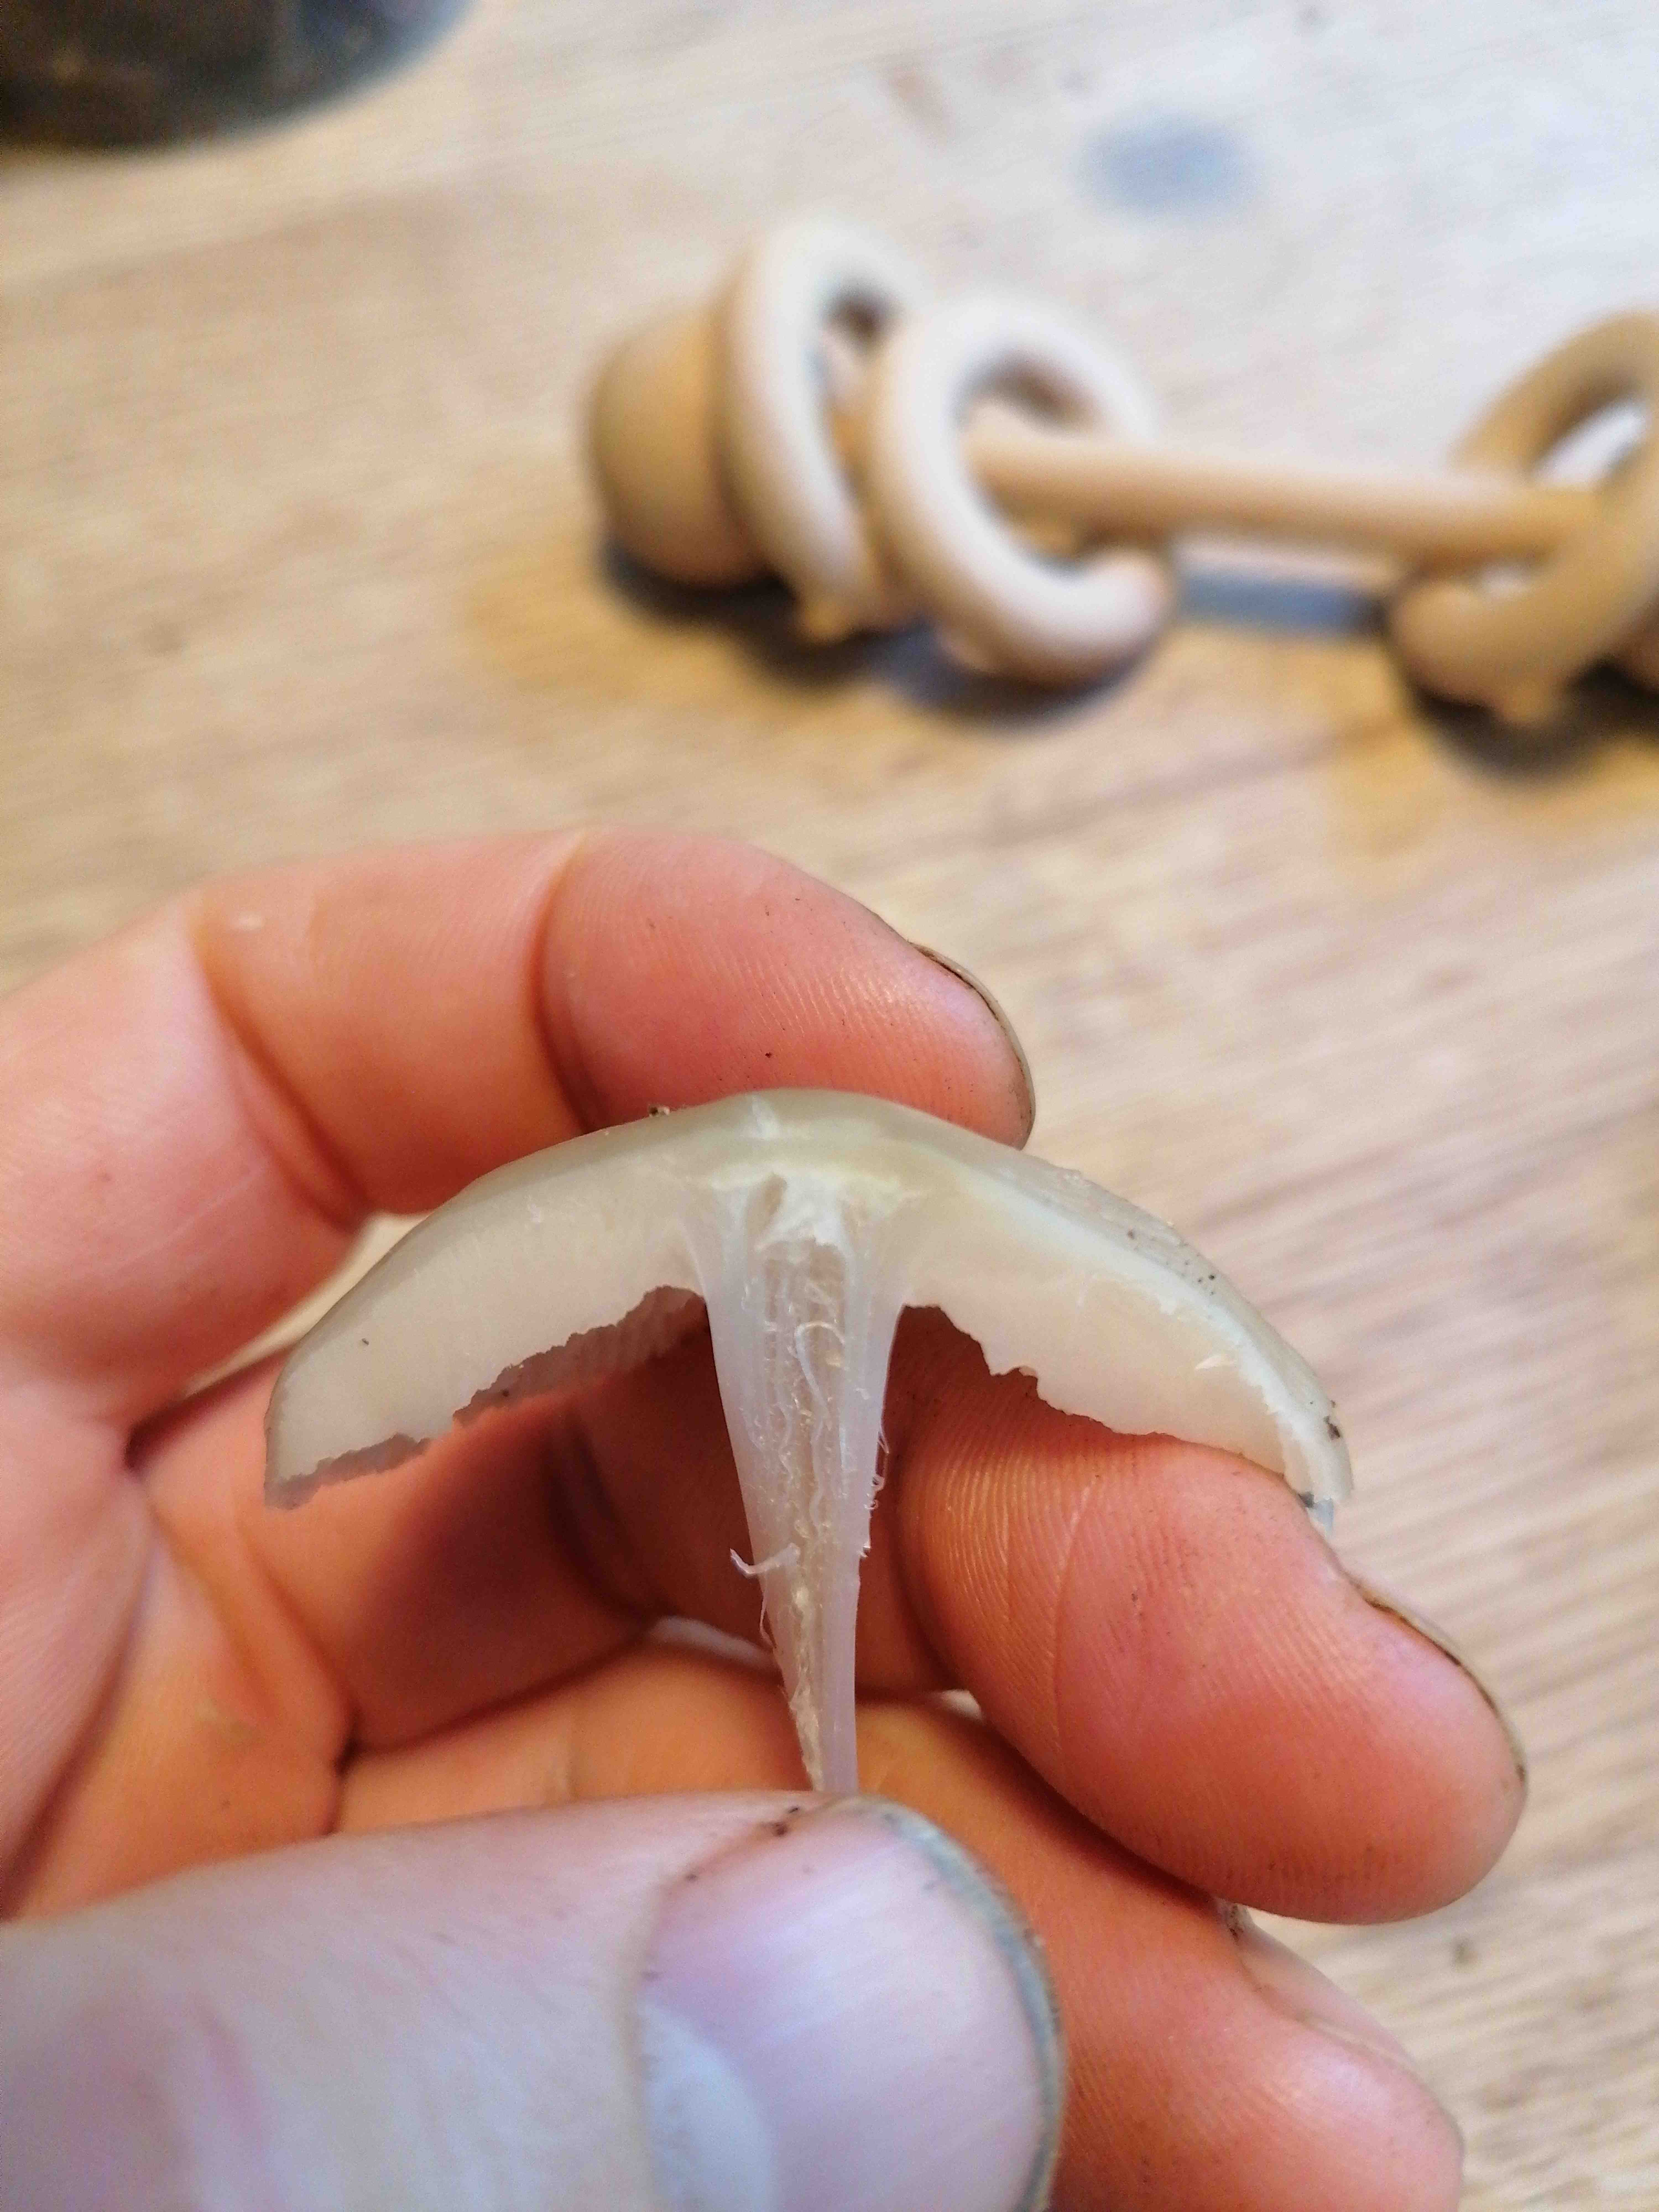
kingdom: Fungi
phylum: Basidiomycota
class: Agaricomycetes
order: Agaricales
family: Mycenaceae
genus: Mycena
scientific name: Mycena galericulata
